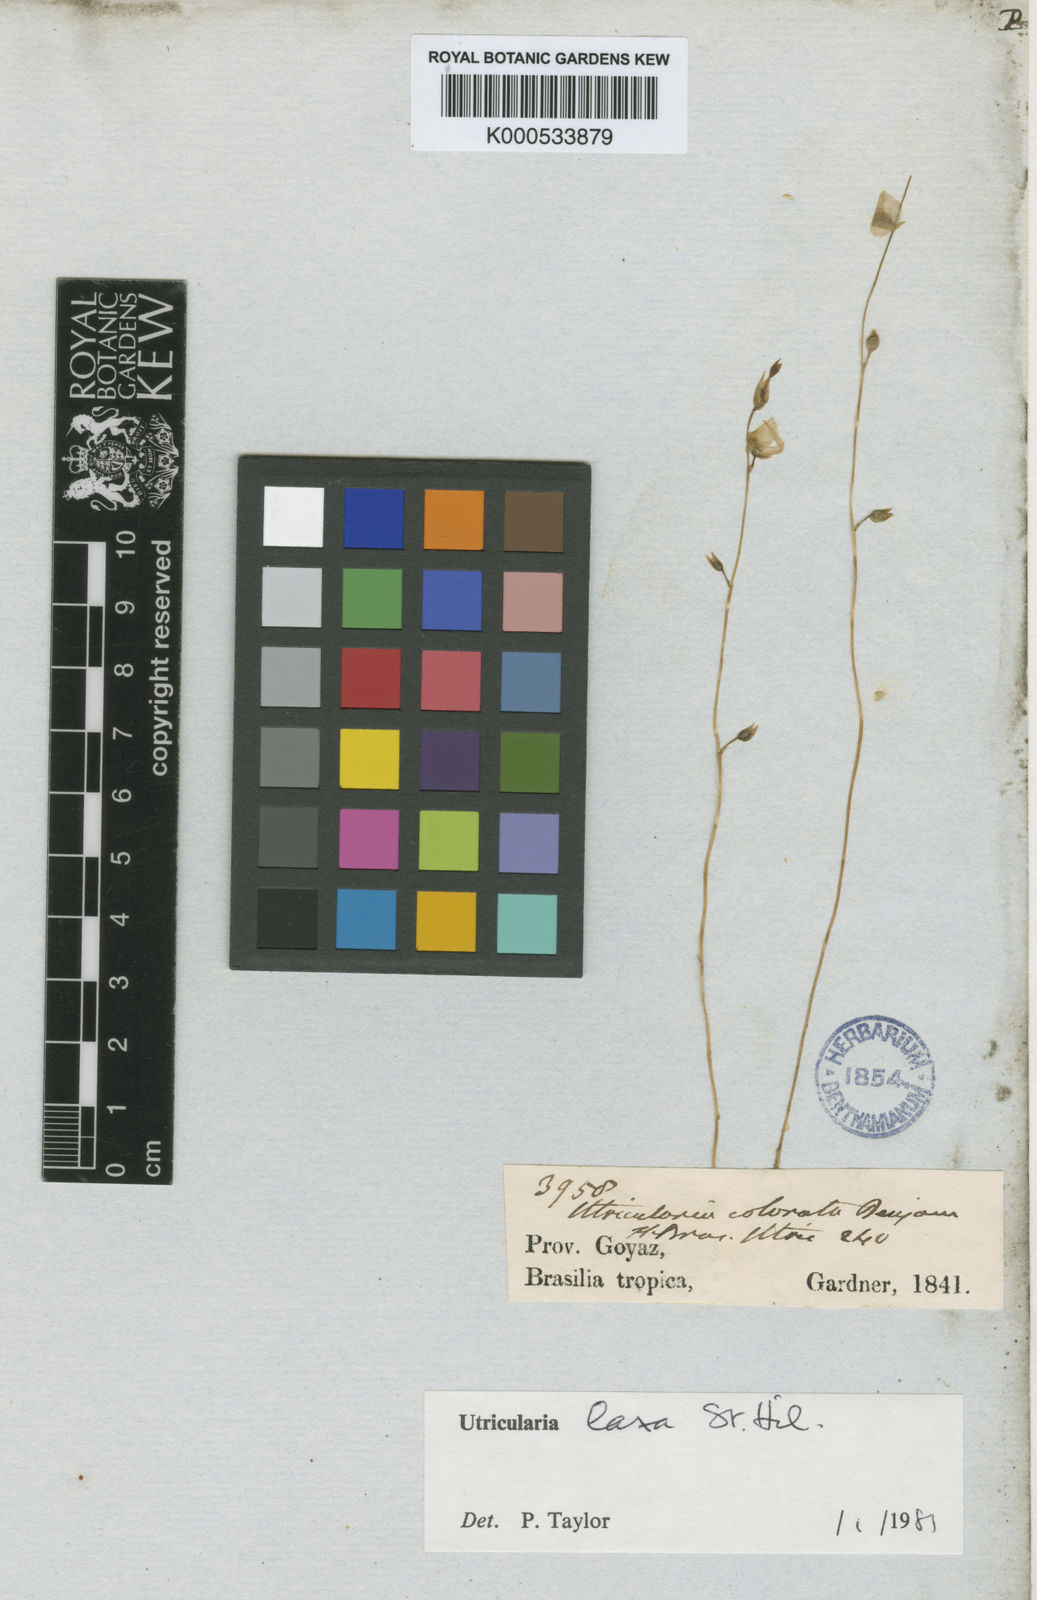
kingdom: Plantae
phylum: Tracheophyta
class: Magnoliopsida
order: Lamiales
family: Lentibulariaceae
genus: Utricularia
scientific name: Utricularia laxa
